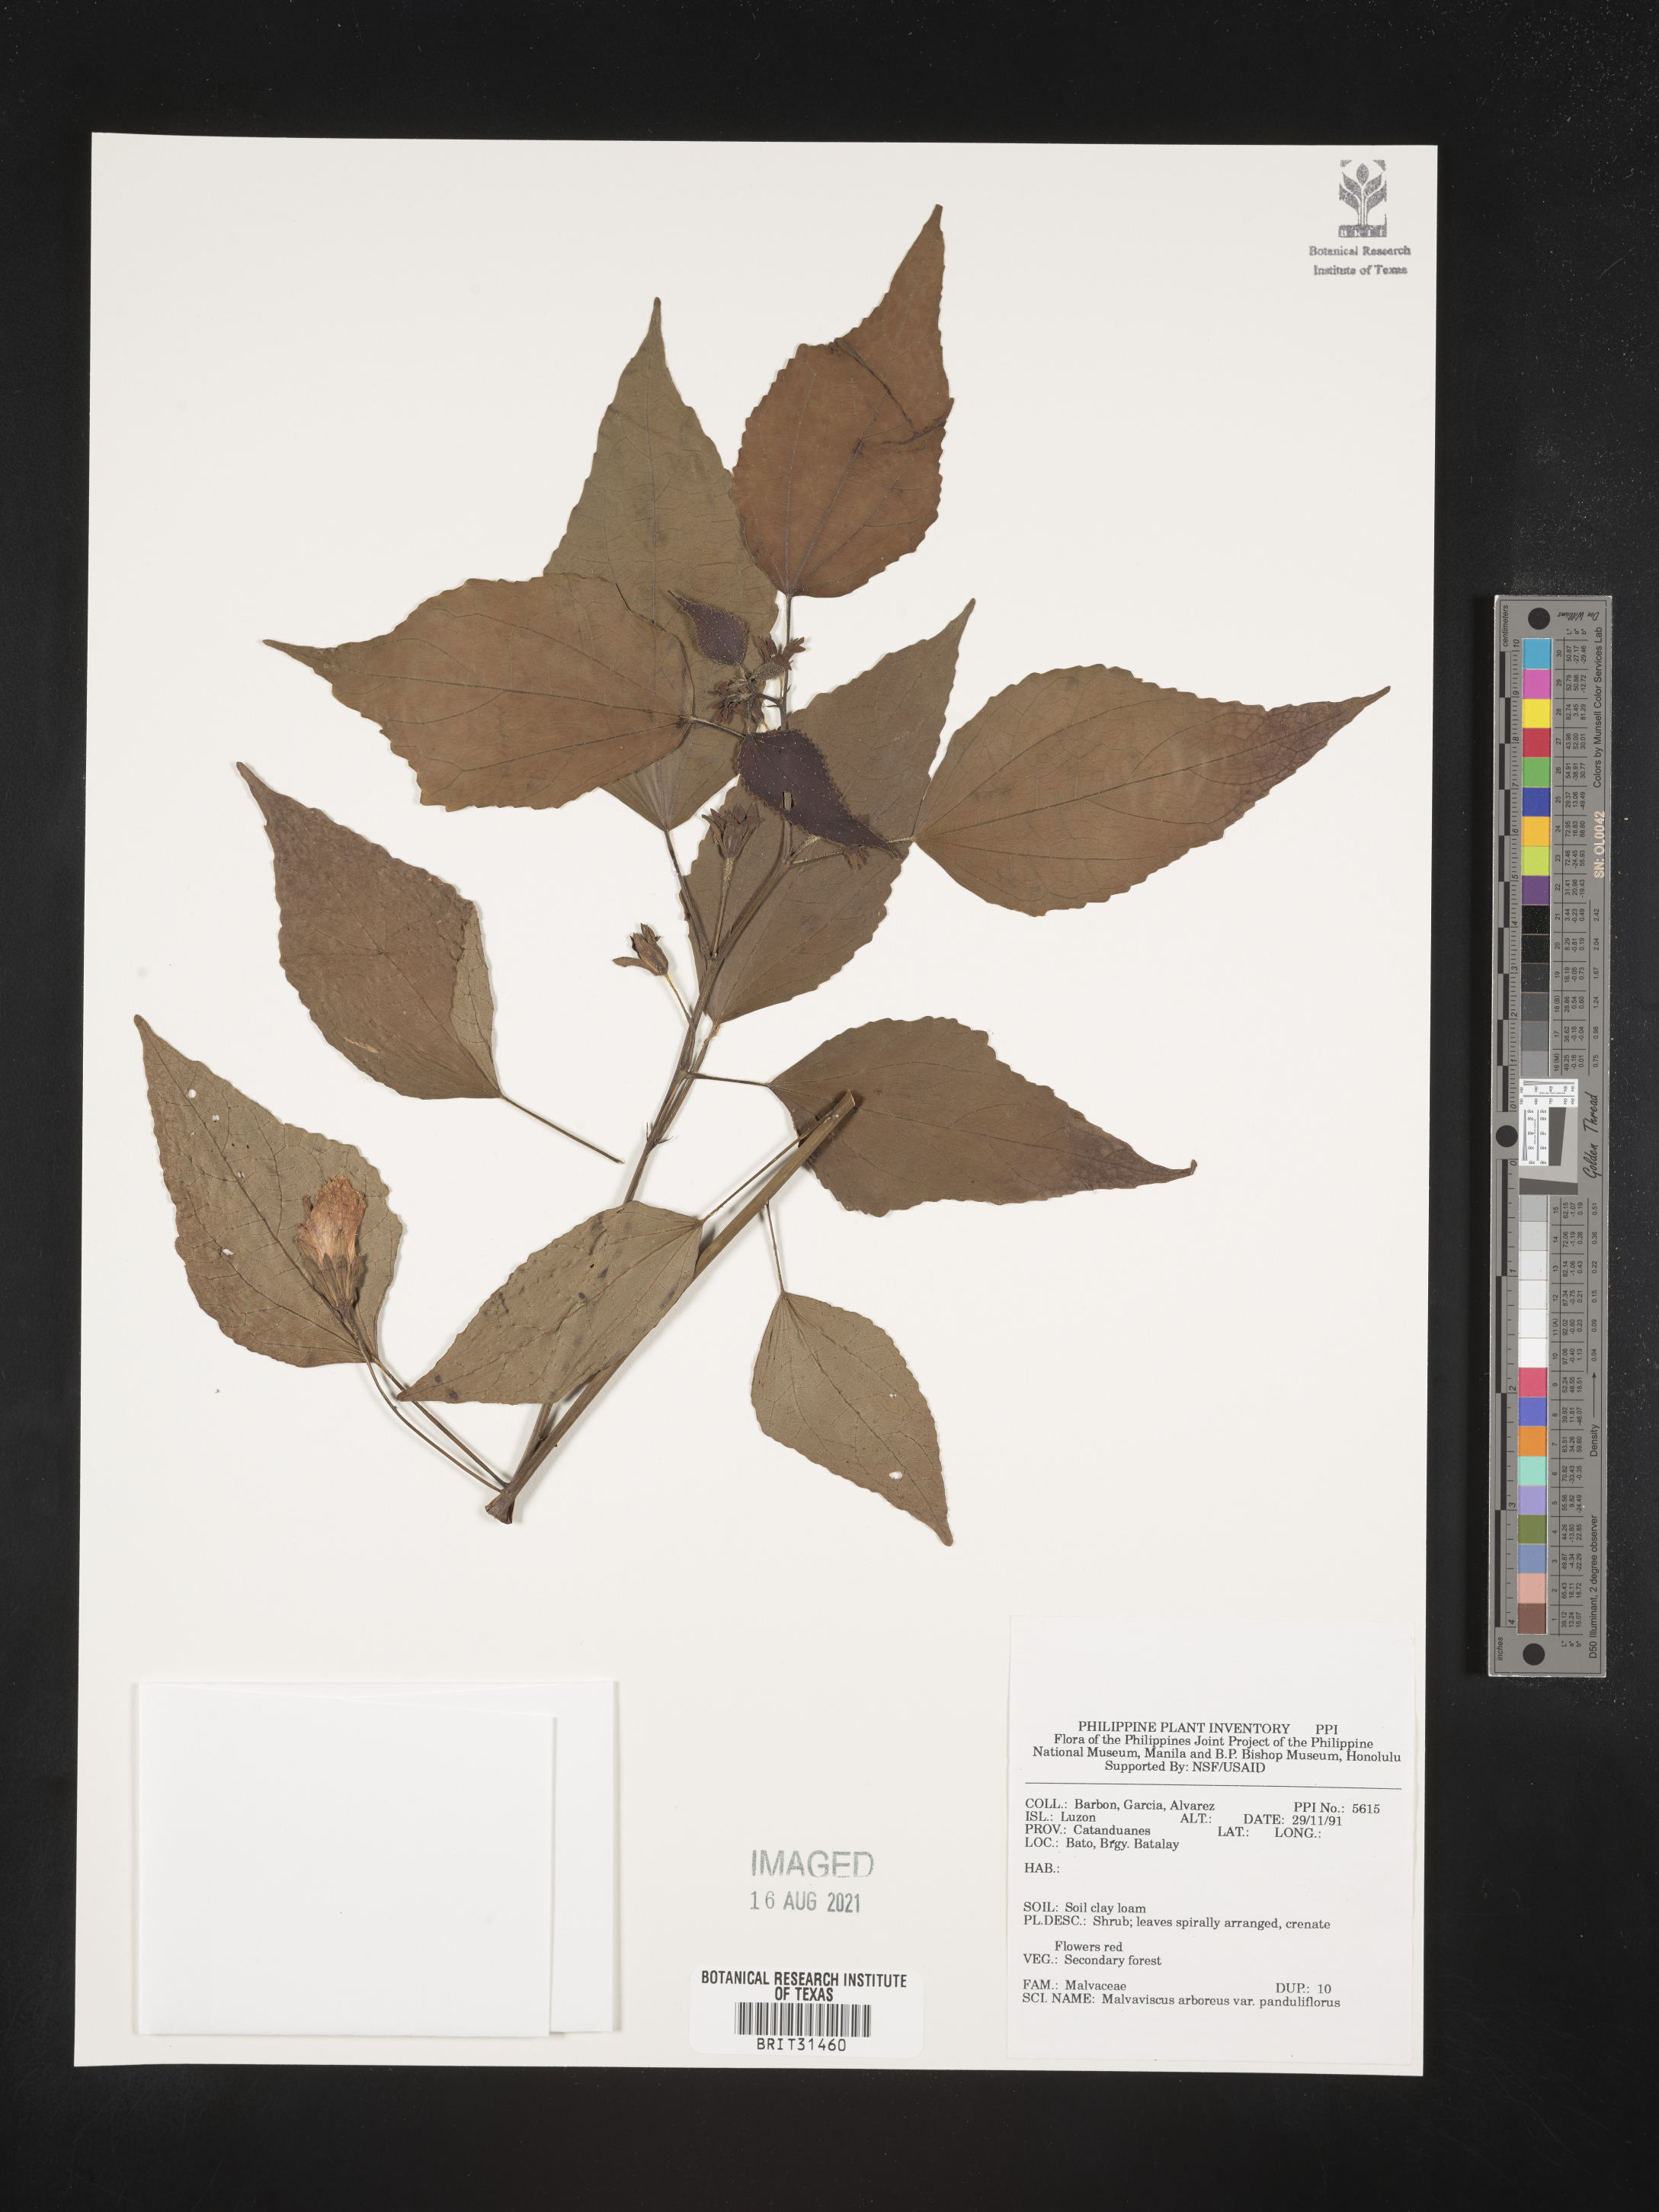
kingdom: Plantae
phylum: Tracheophyta
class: Magnoliopsida
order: Malvales
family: Malvaceae
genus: Malvaviscus
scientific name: Malvaviscus arboreus
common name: Wax mallow
